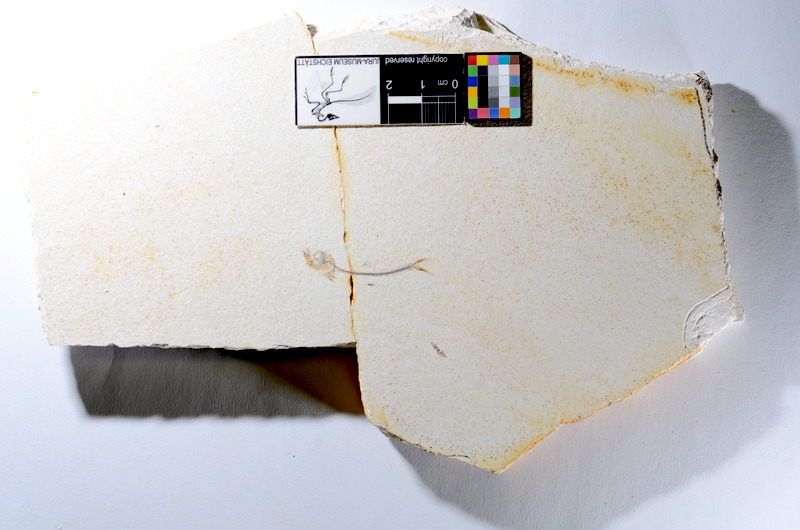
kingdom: Animalia
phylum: Chordata
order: Salmoniformes
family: Orthogonikleithridae
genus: Orthogonikleithrus
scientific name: Orthogonikleithrus hoelli
